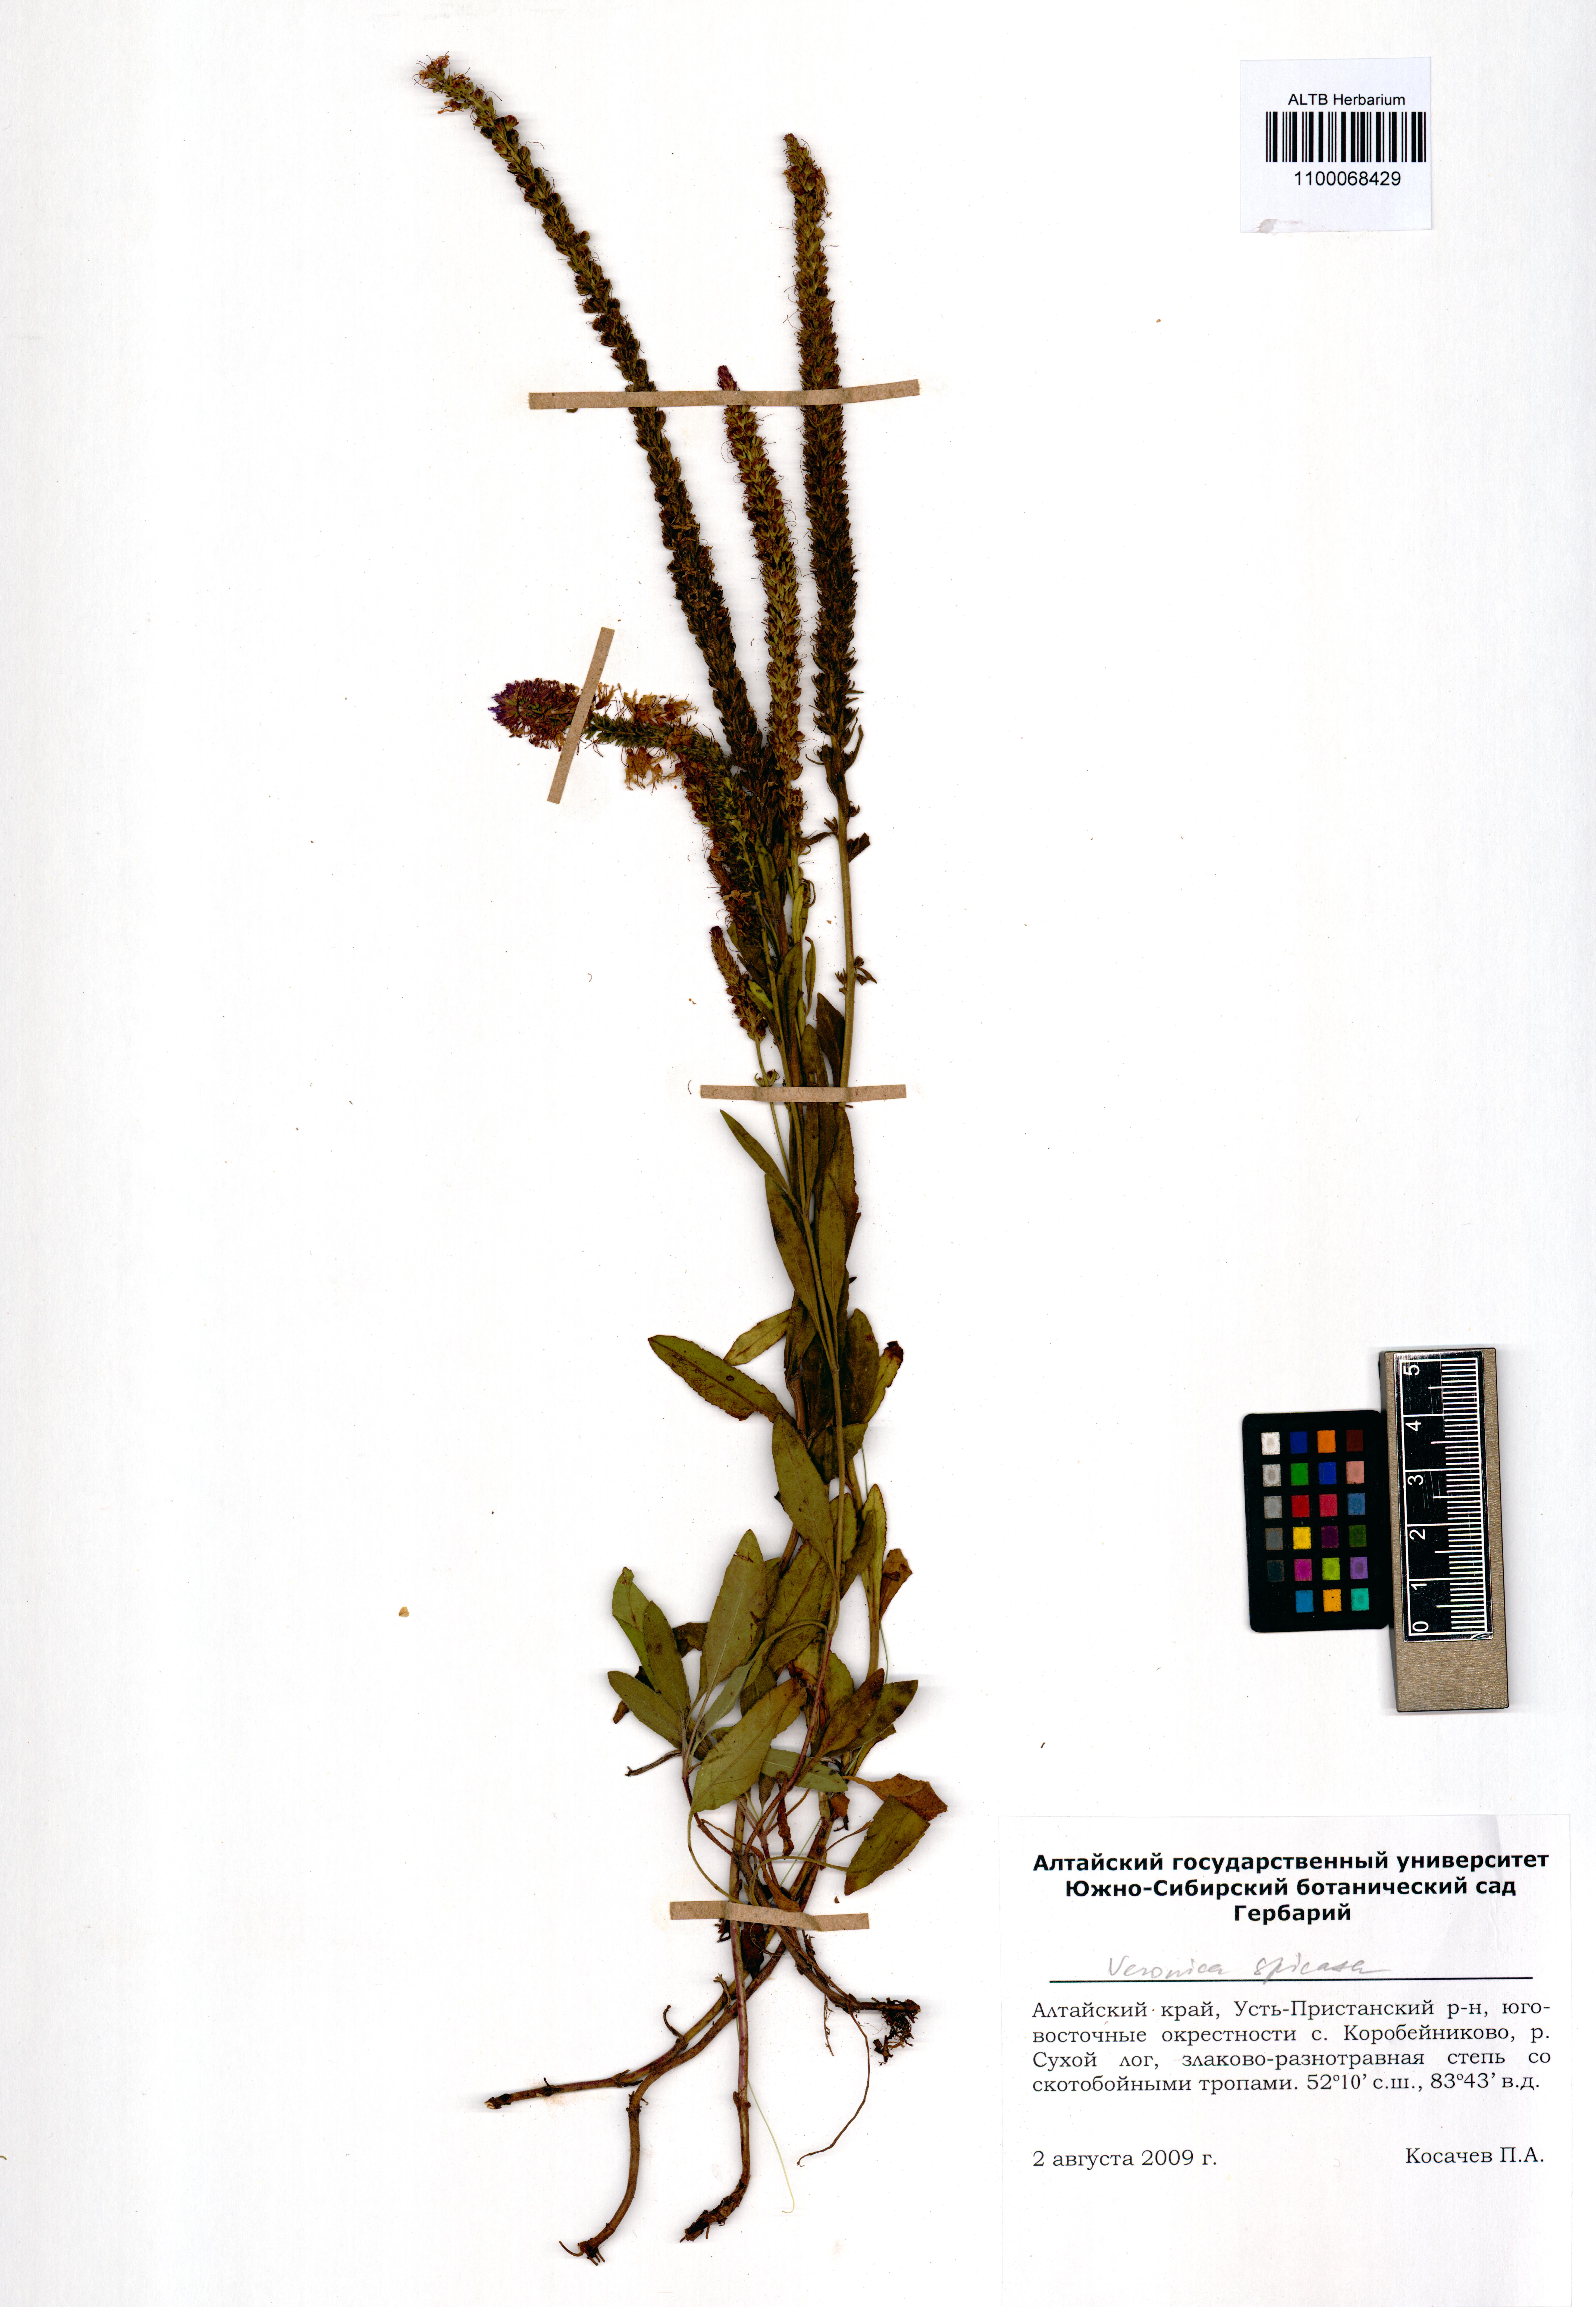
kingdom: Plantae
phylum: Tracheophyta
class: Magnoliopsida
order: Lamiales
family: Plantaginaceae
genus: Veronica
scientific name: Veronica spicata
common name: Spiked speedwell
